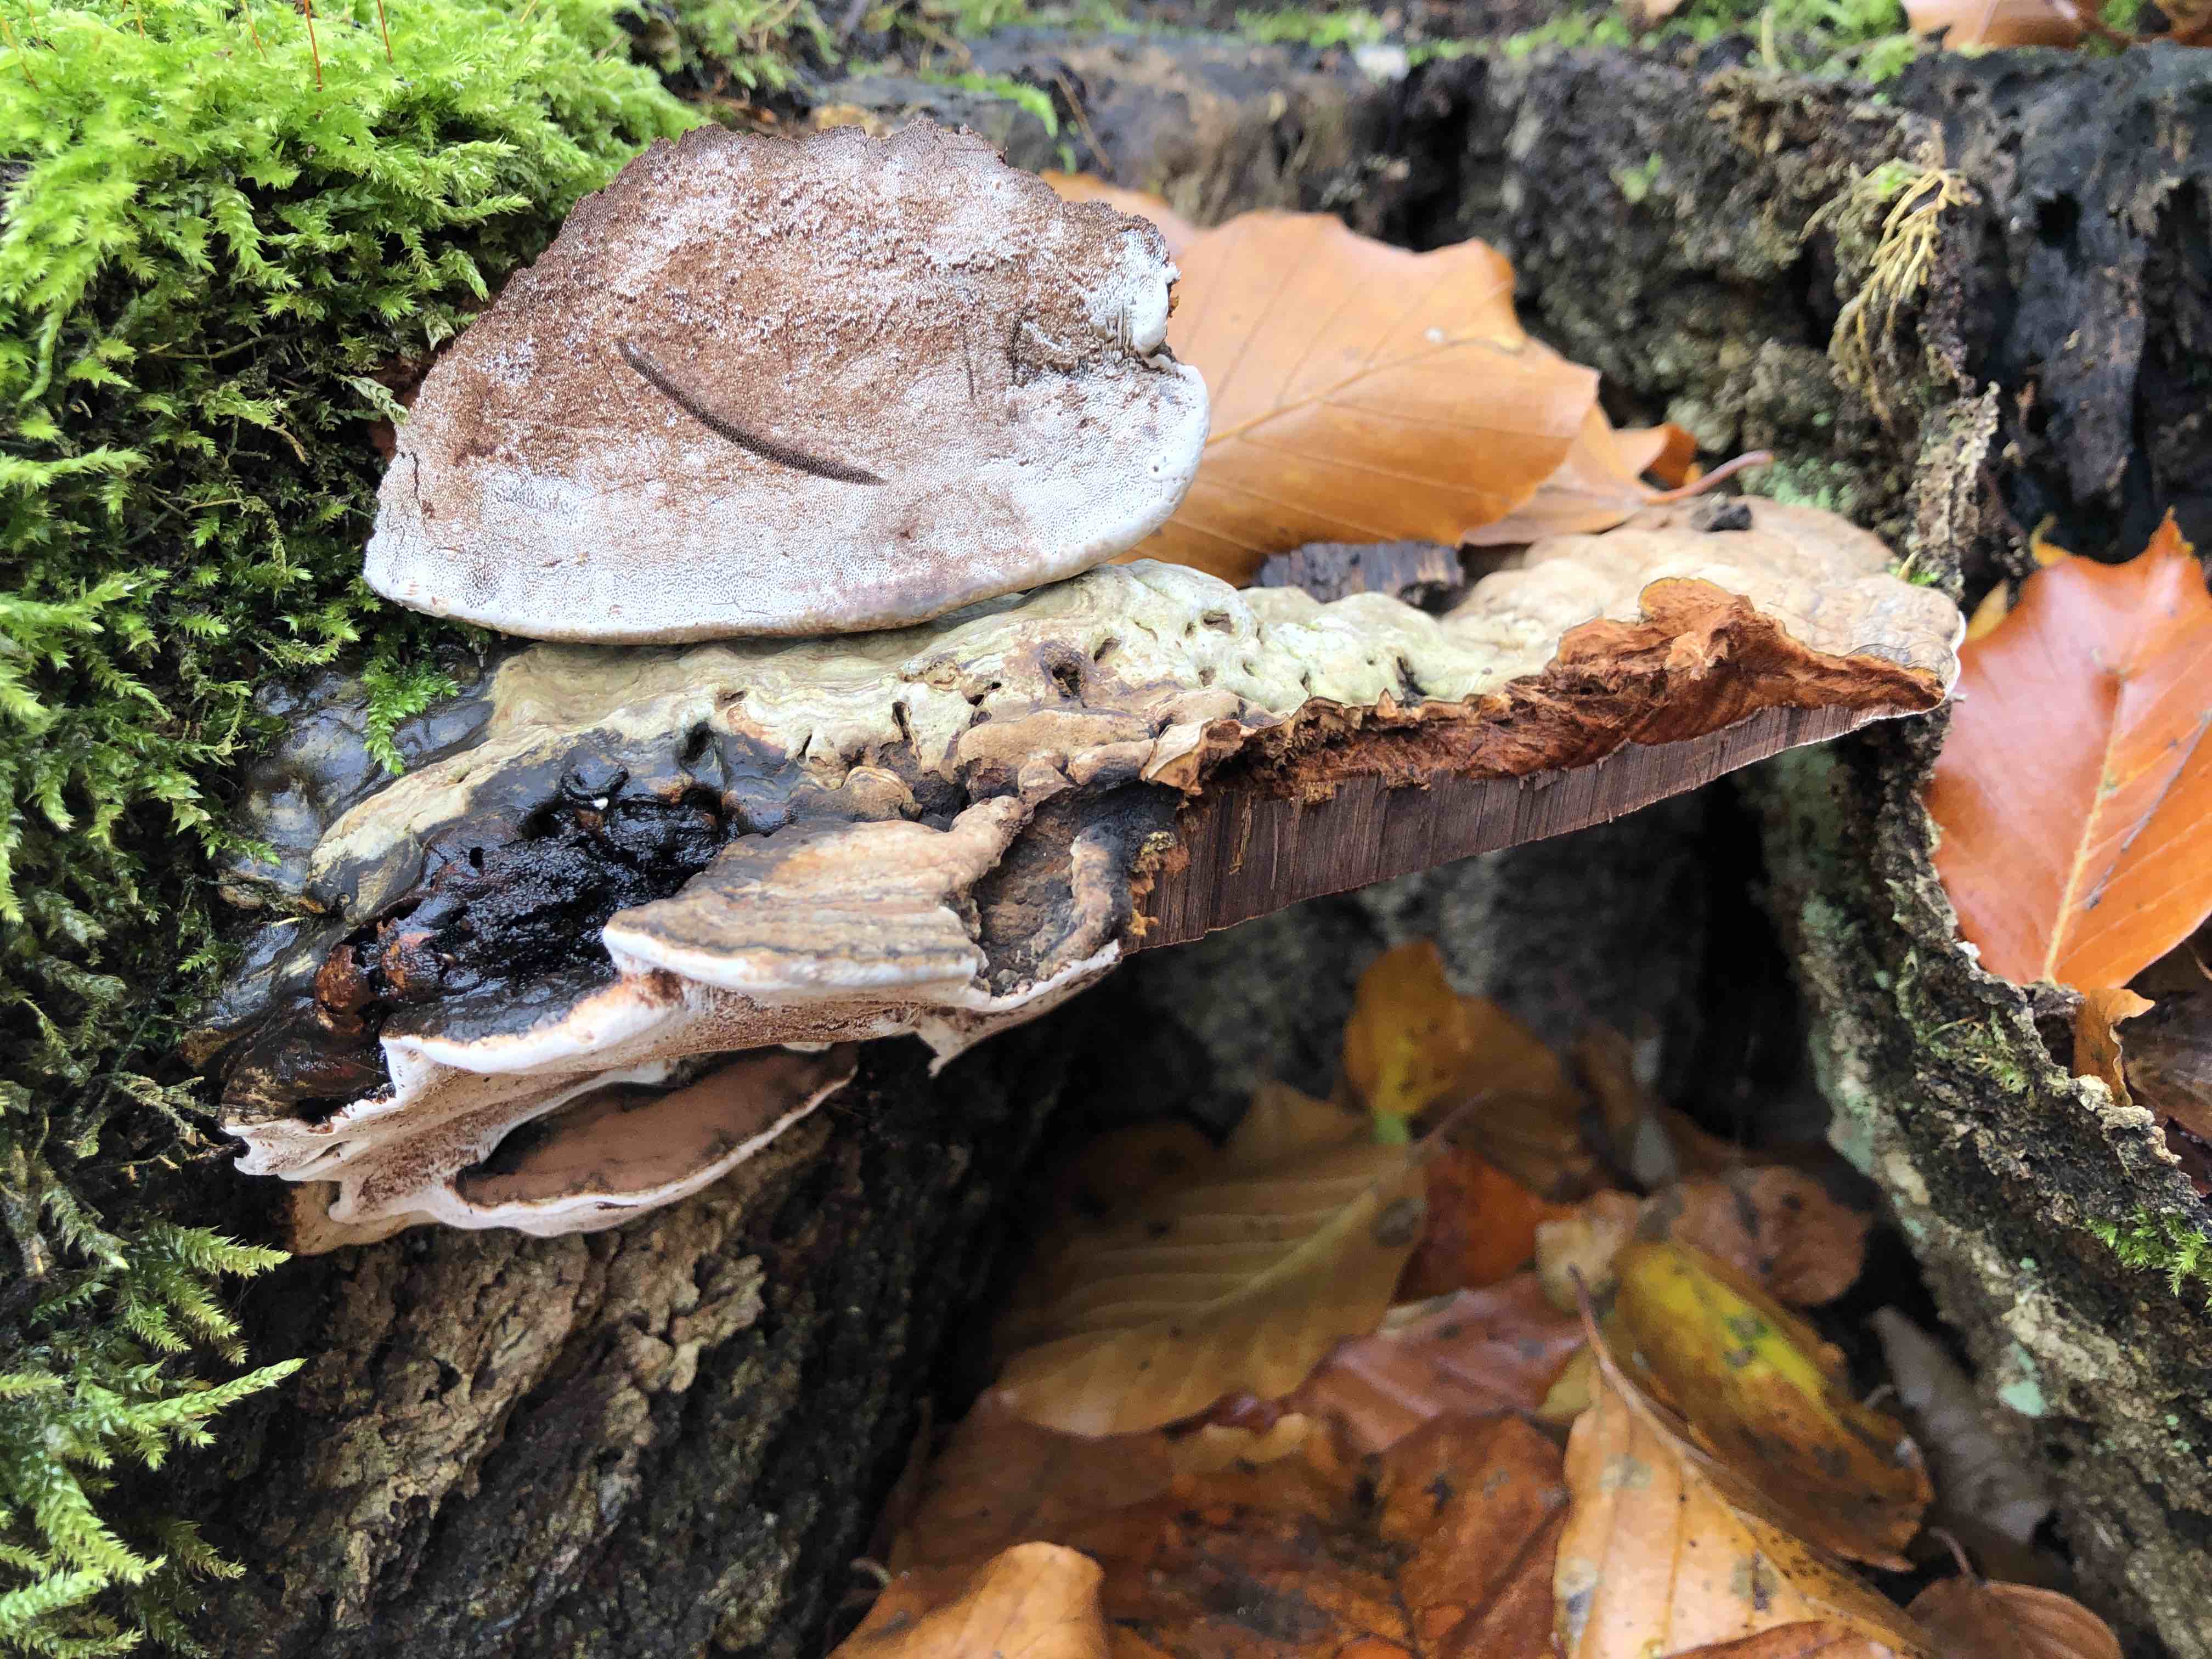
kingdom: Fungi
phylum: Basidiomycota
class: Agaricomycetes
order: Polyporales
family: Polyporaceae
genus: Ganoderma
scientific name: Ganoderma applanatum
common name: flad lakporesvamp
